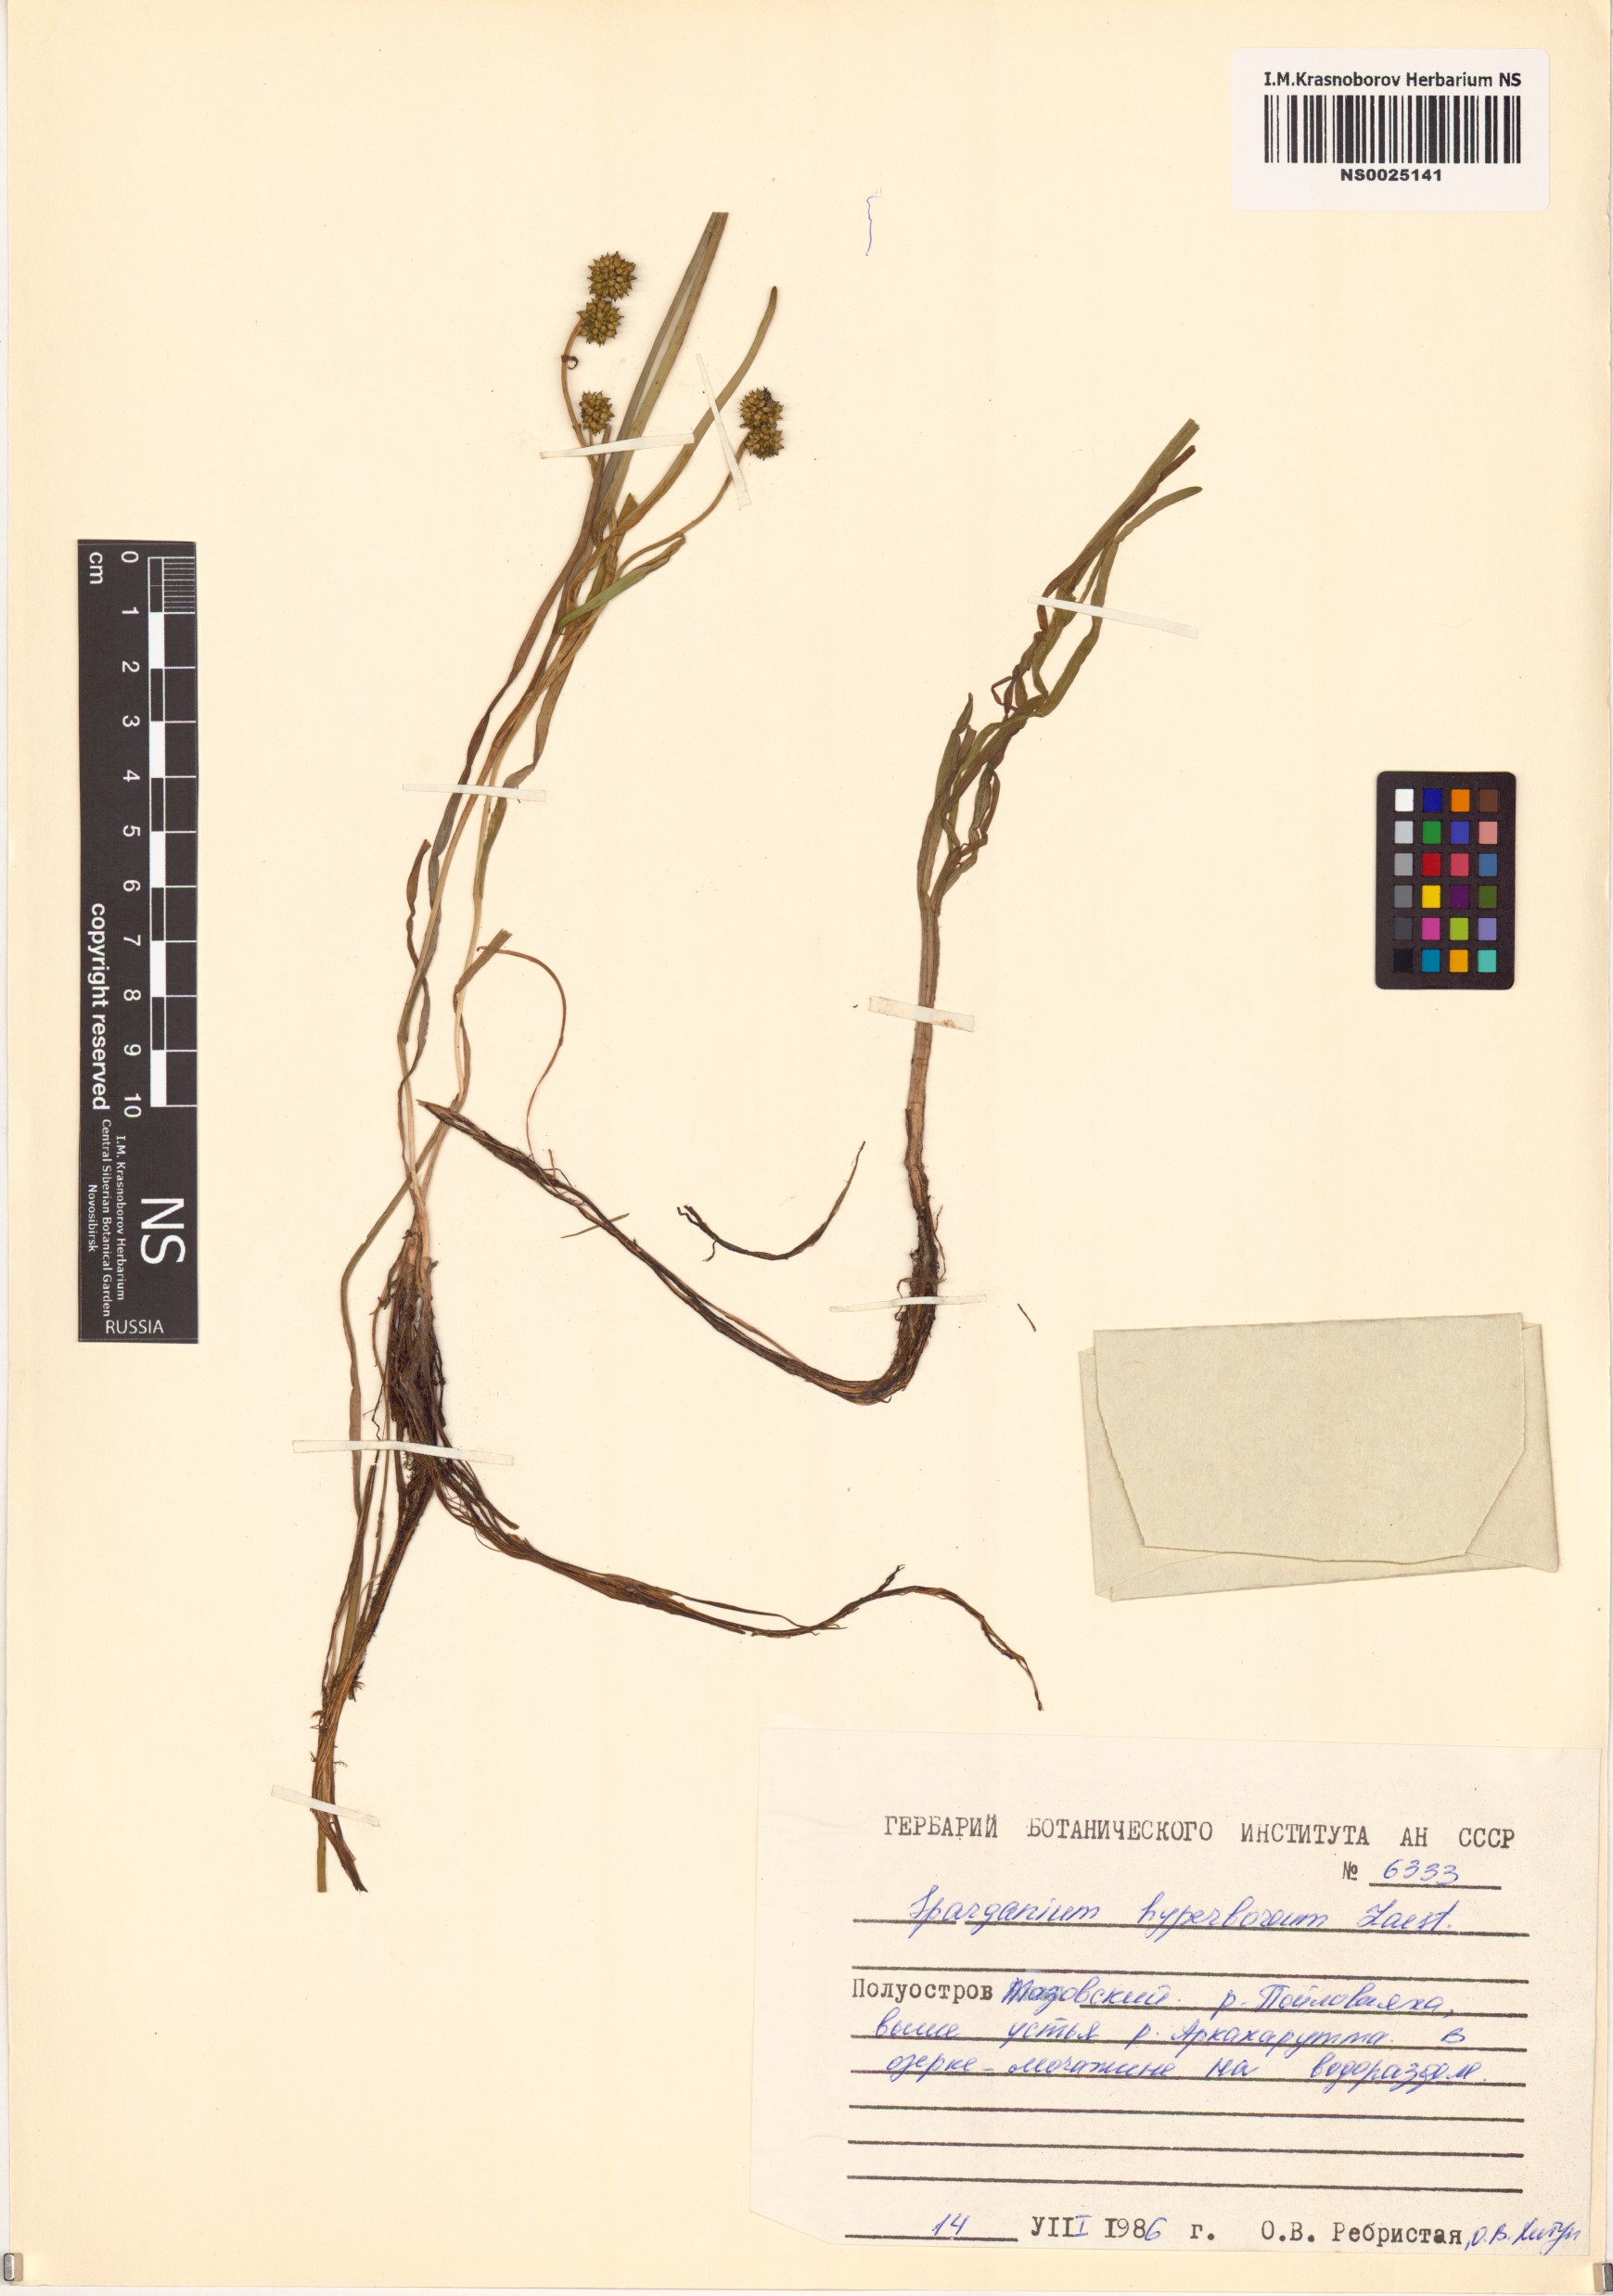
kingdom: Plantae
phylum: Tracheophyta
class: Liliopsida
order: Poales
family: Typhaceae
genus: Sparganium
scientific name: Sparganium hyperboreum
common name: Arctic burreed
